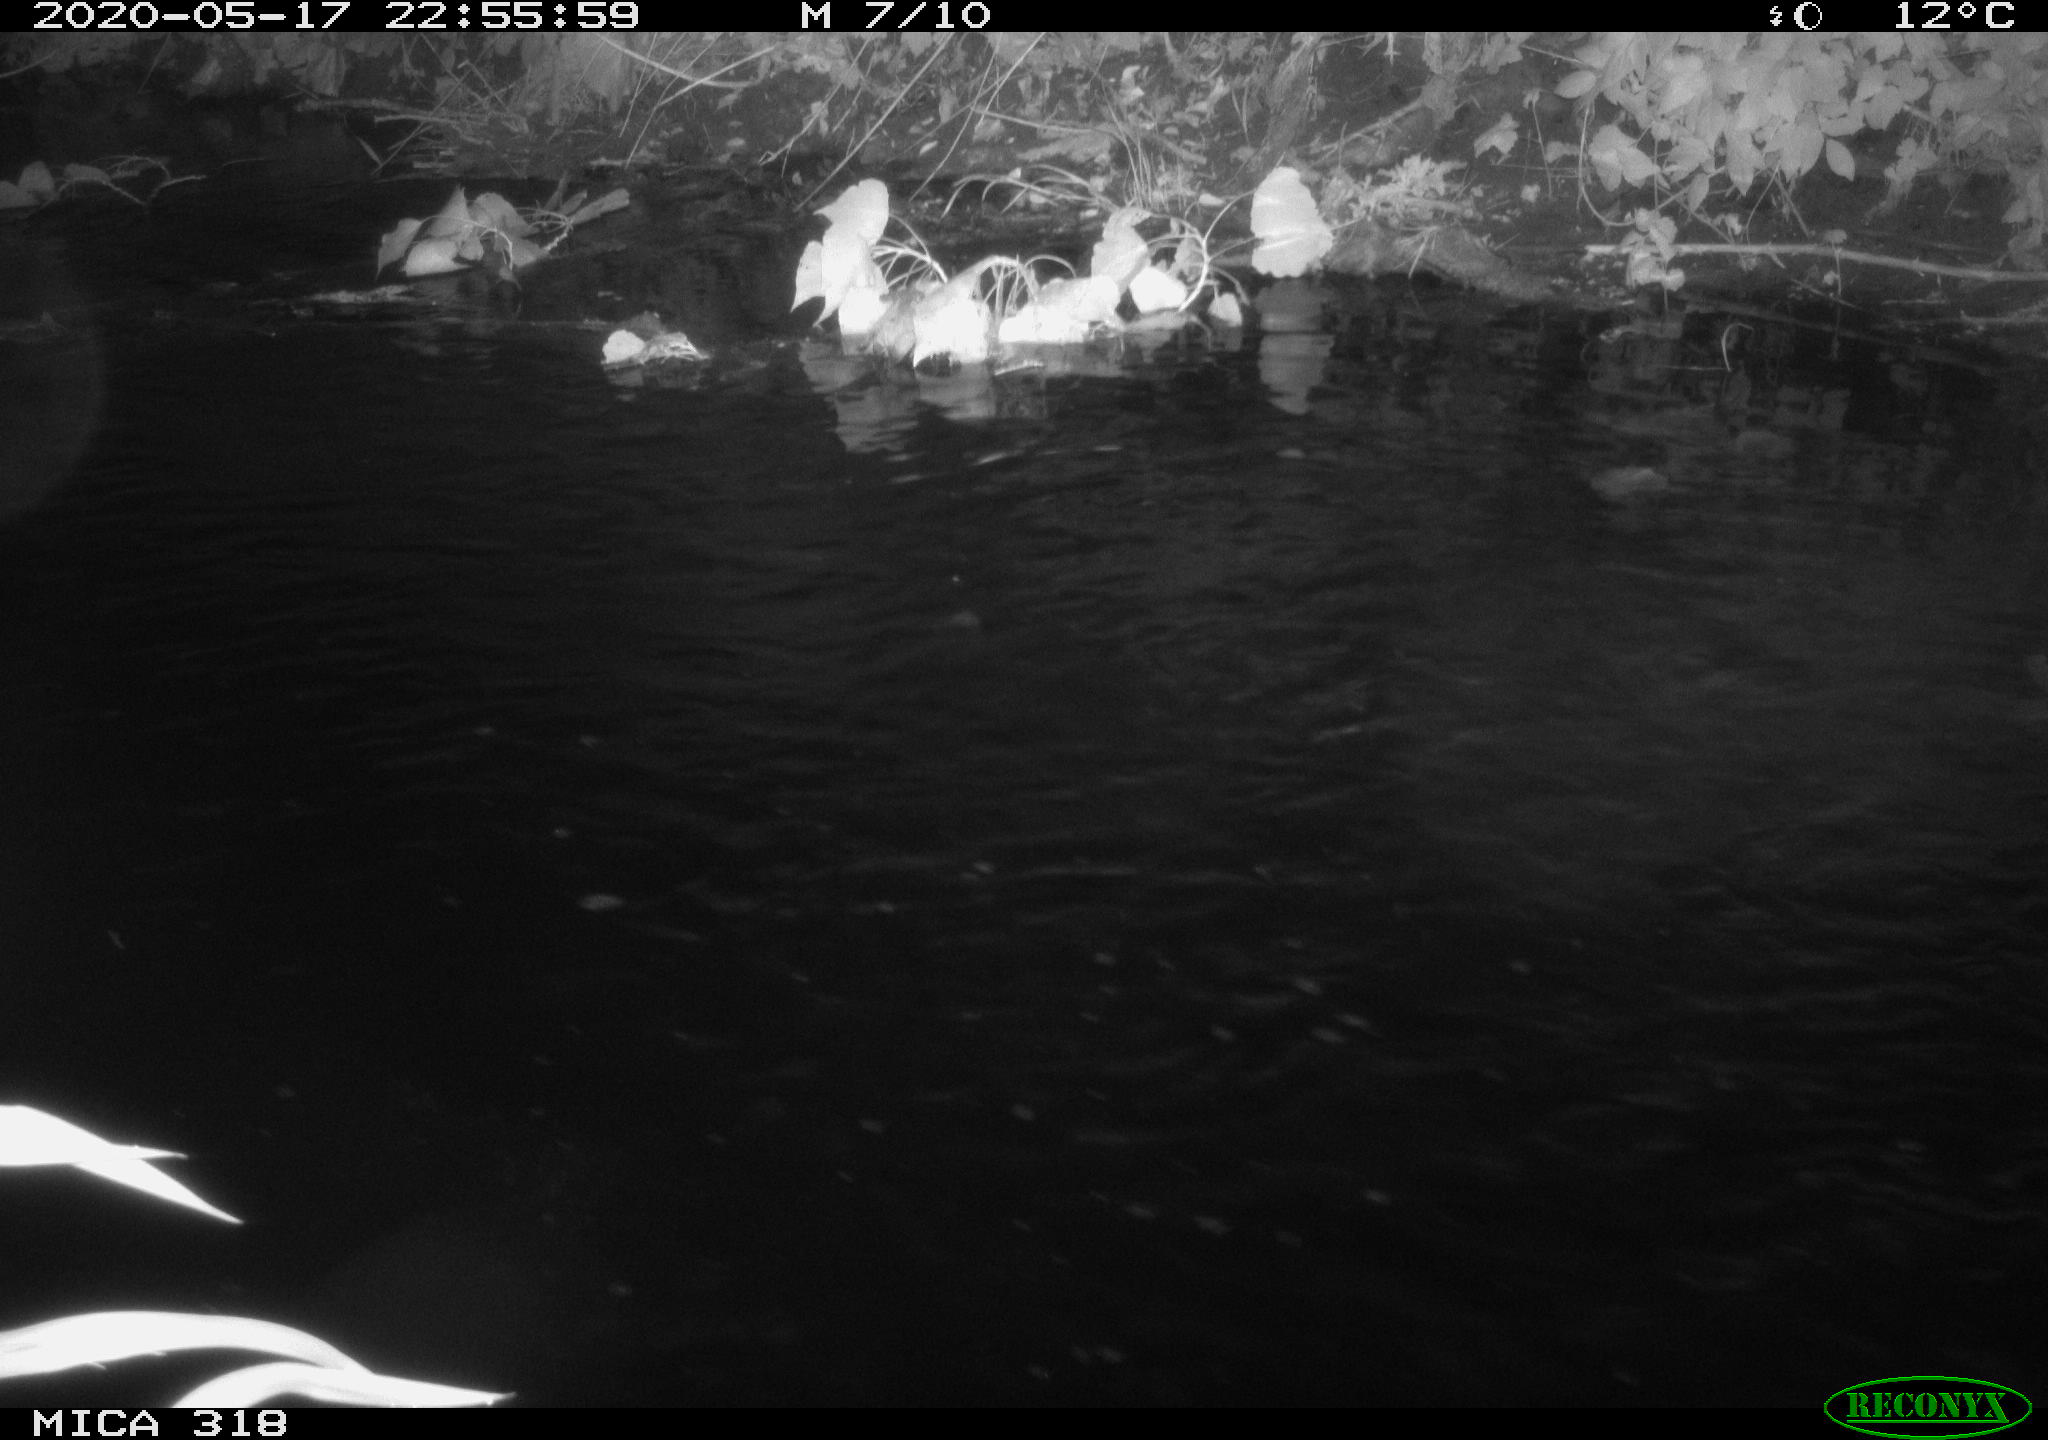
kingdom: Animalia
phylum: Chordata
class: Aves
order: Pelecaniformes
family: Ardeidae
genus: Ardea
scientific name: Ardea cinerea
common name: Grey heron
